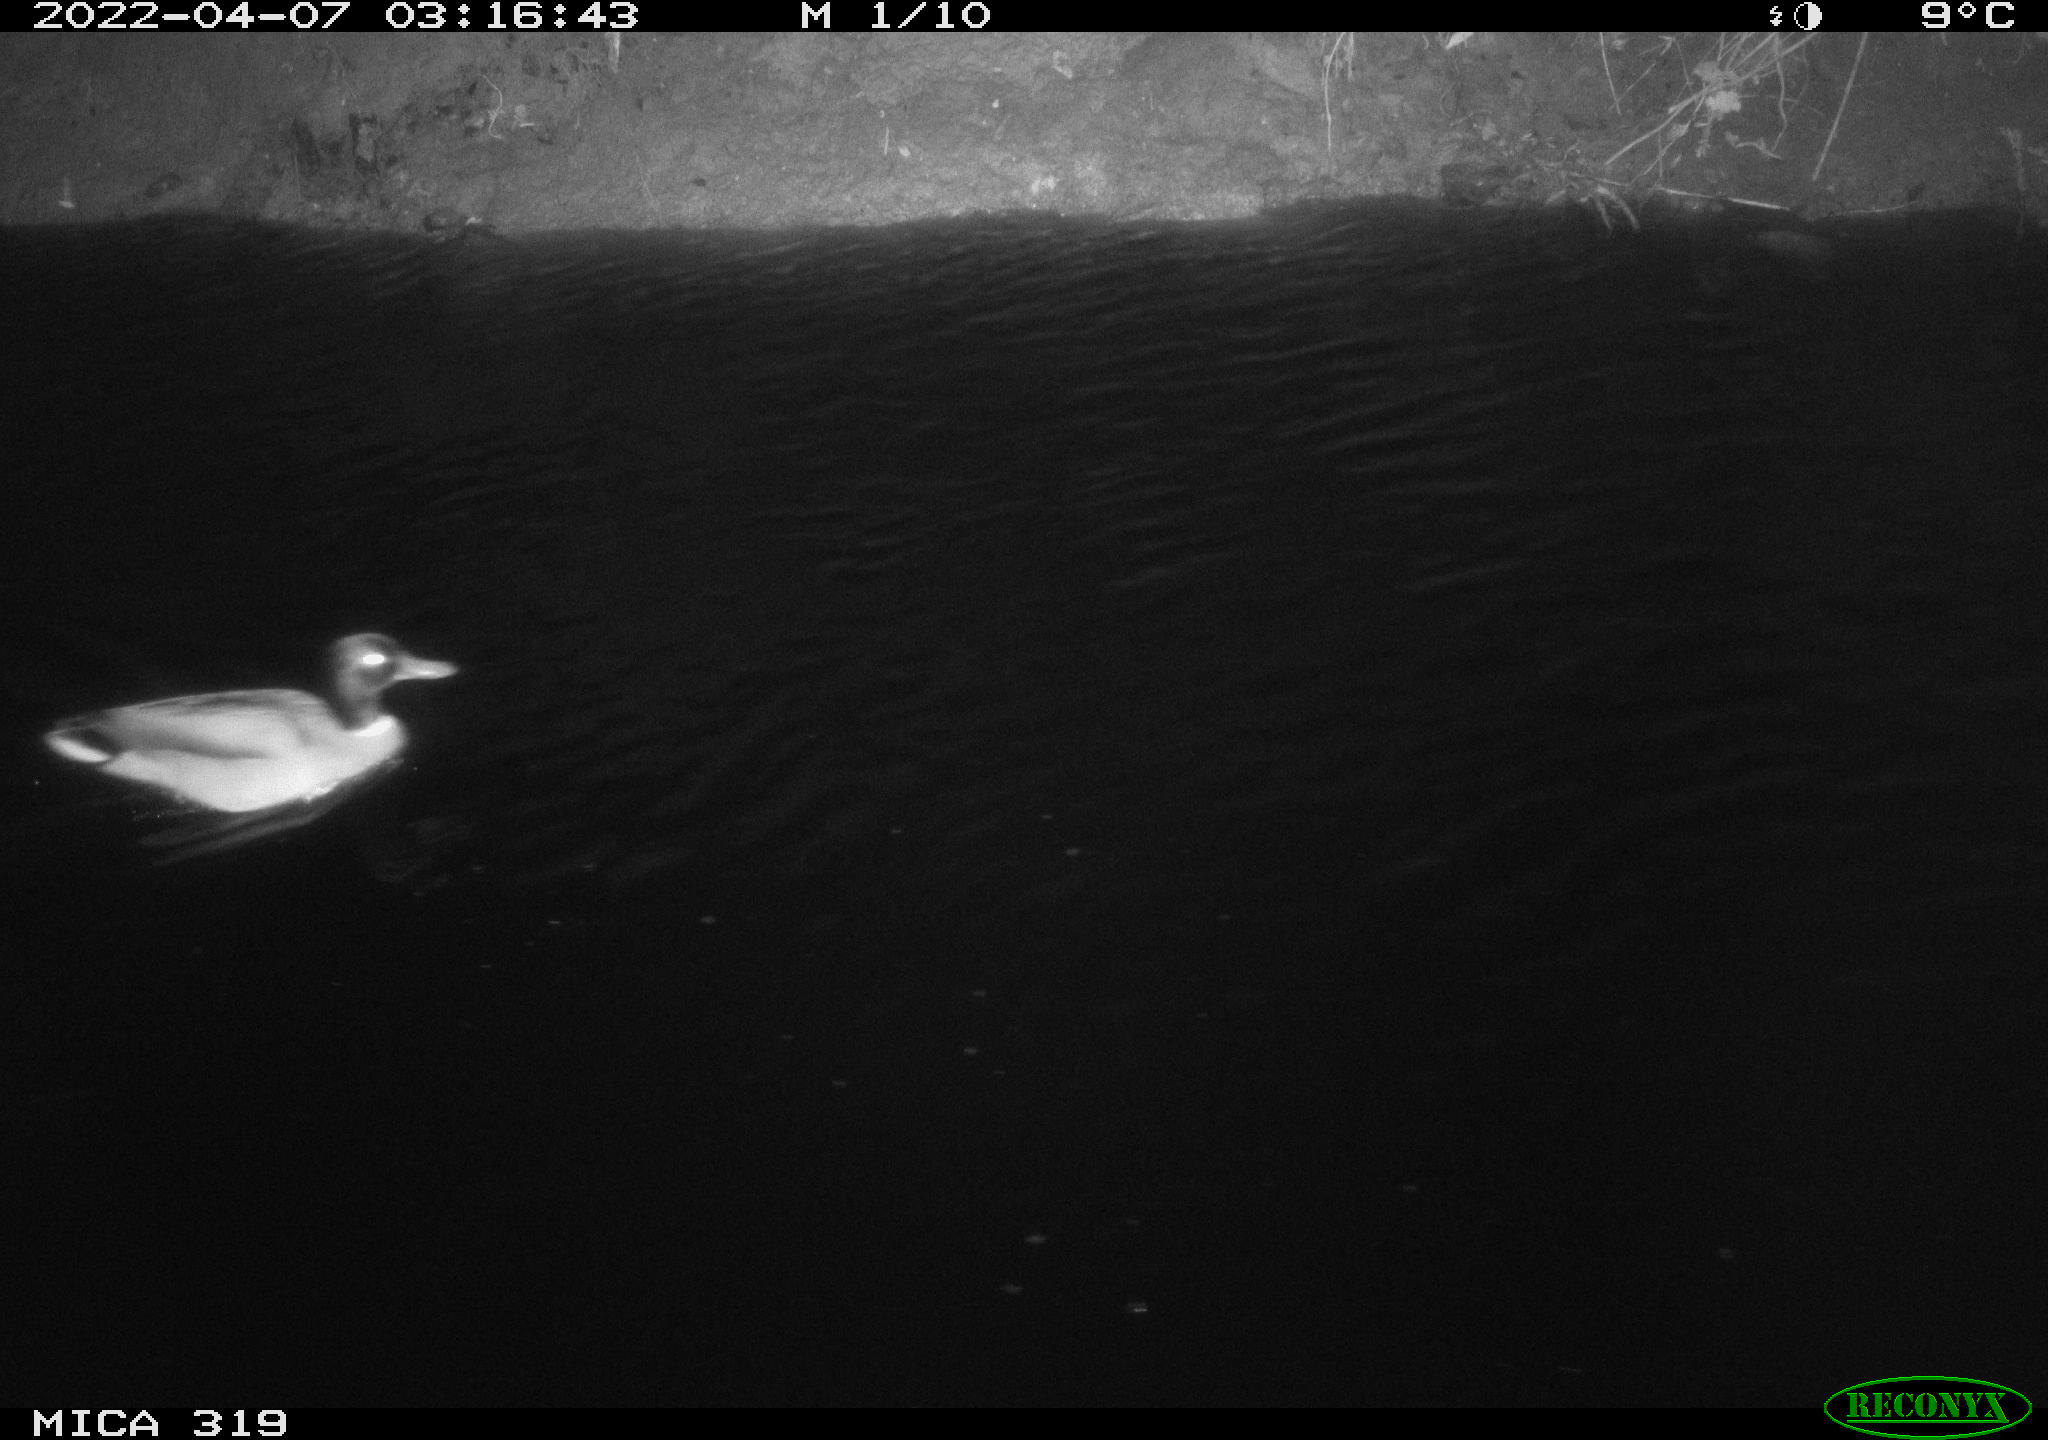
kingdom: Animalia
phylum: Chordata
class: Aves
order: Anseriformes
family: Anatidae
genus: Anas
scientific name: Anas platyrhynchos
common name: Mallard
